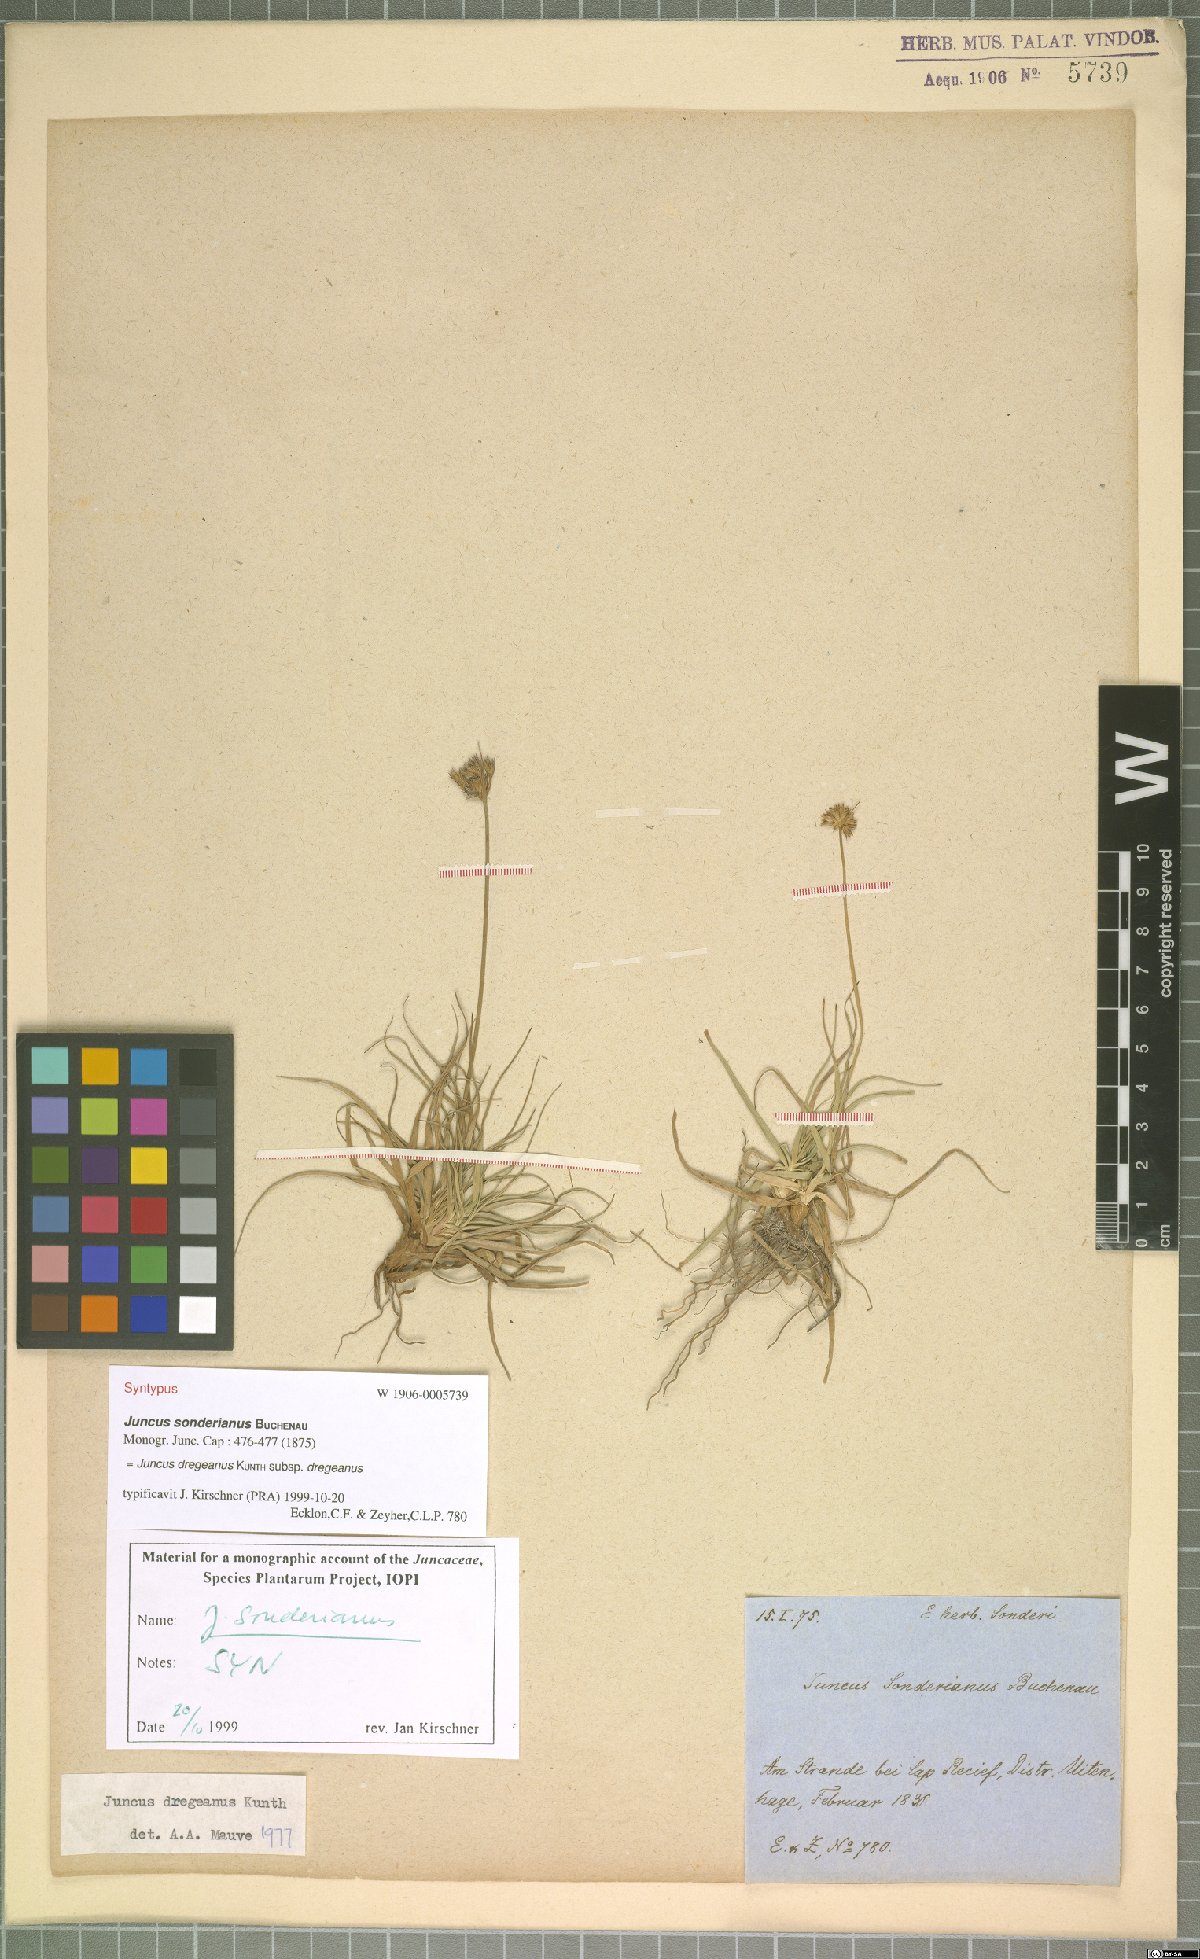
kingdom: Plantae
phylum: Tracheophyta
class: Liliopsida
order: Poales
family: Juncaceae
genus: Juncus
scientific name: Juncus dregeanus
